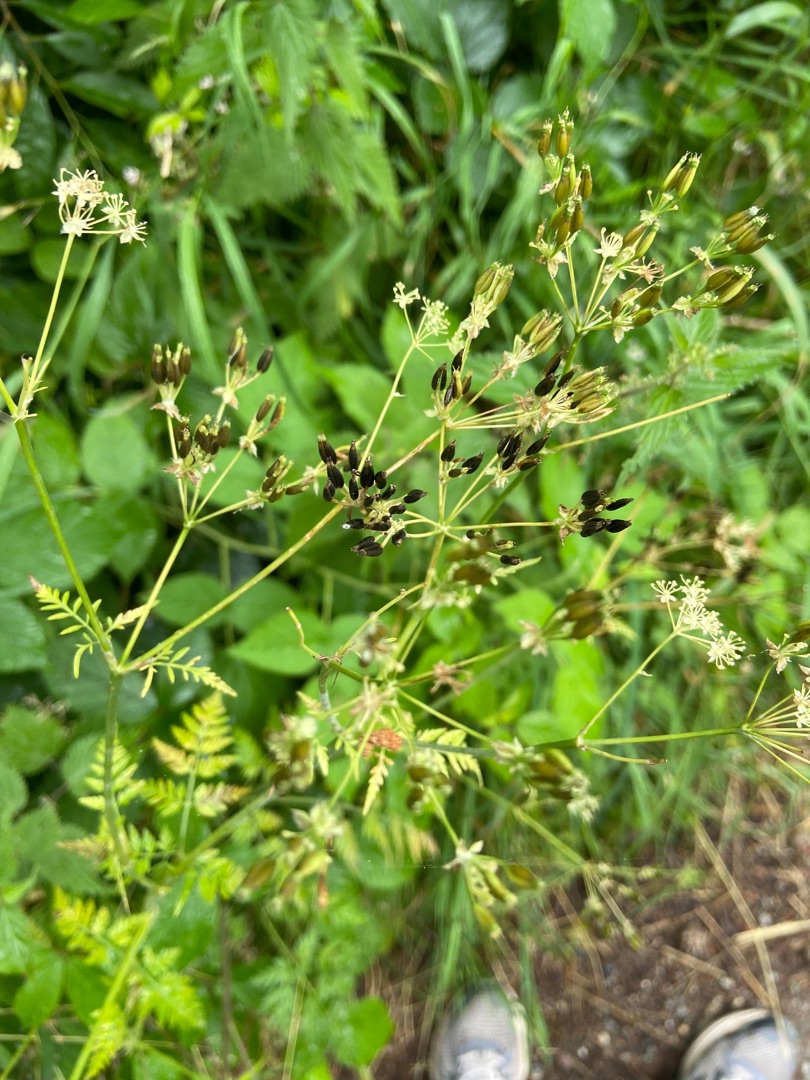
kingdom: Plantae
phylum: Tracheophyta
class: Magnoliopsida
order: Apiales
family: Apiaceae
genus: Anthriscus
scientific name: Anthriscus sylvestris
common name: Vild kørvel
